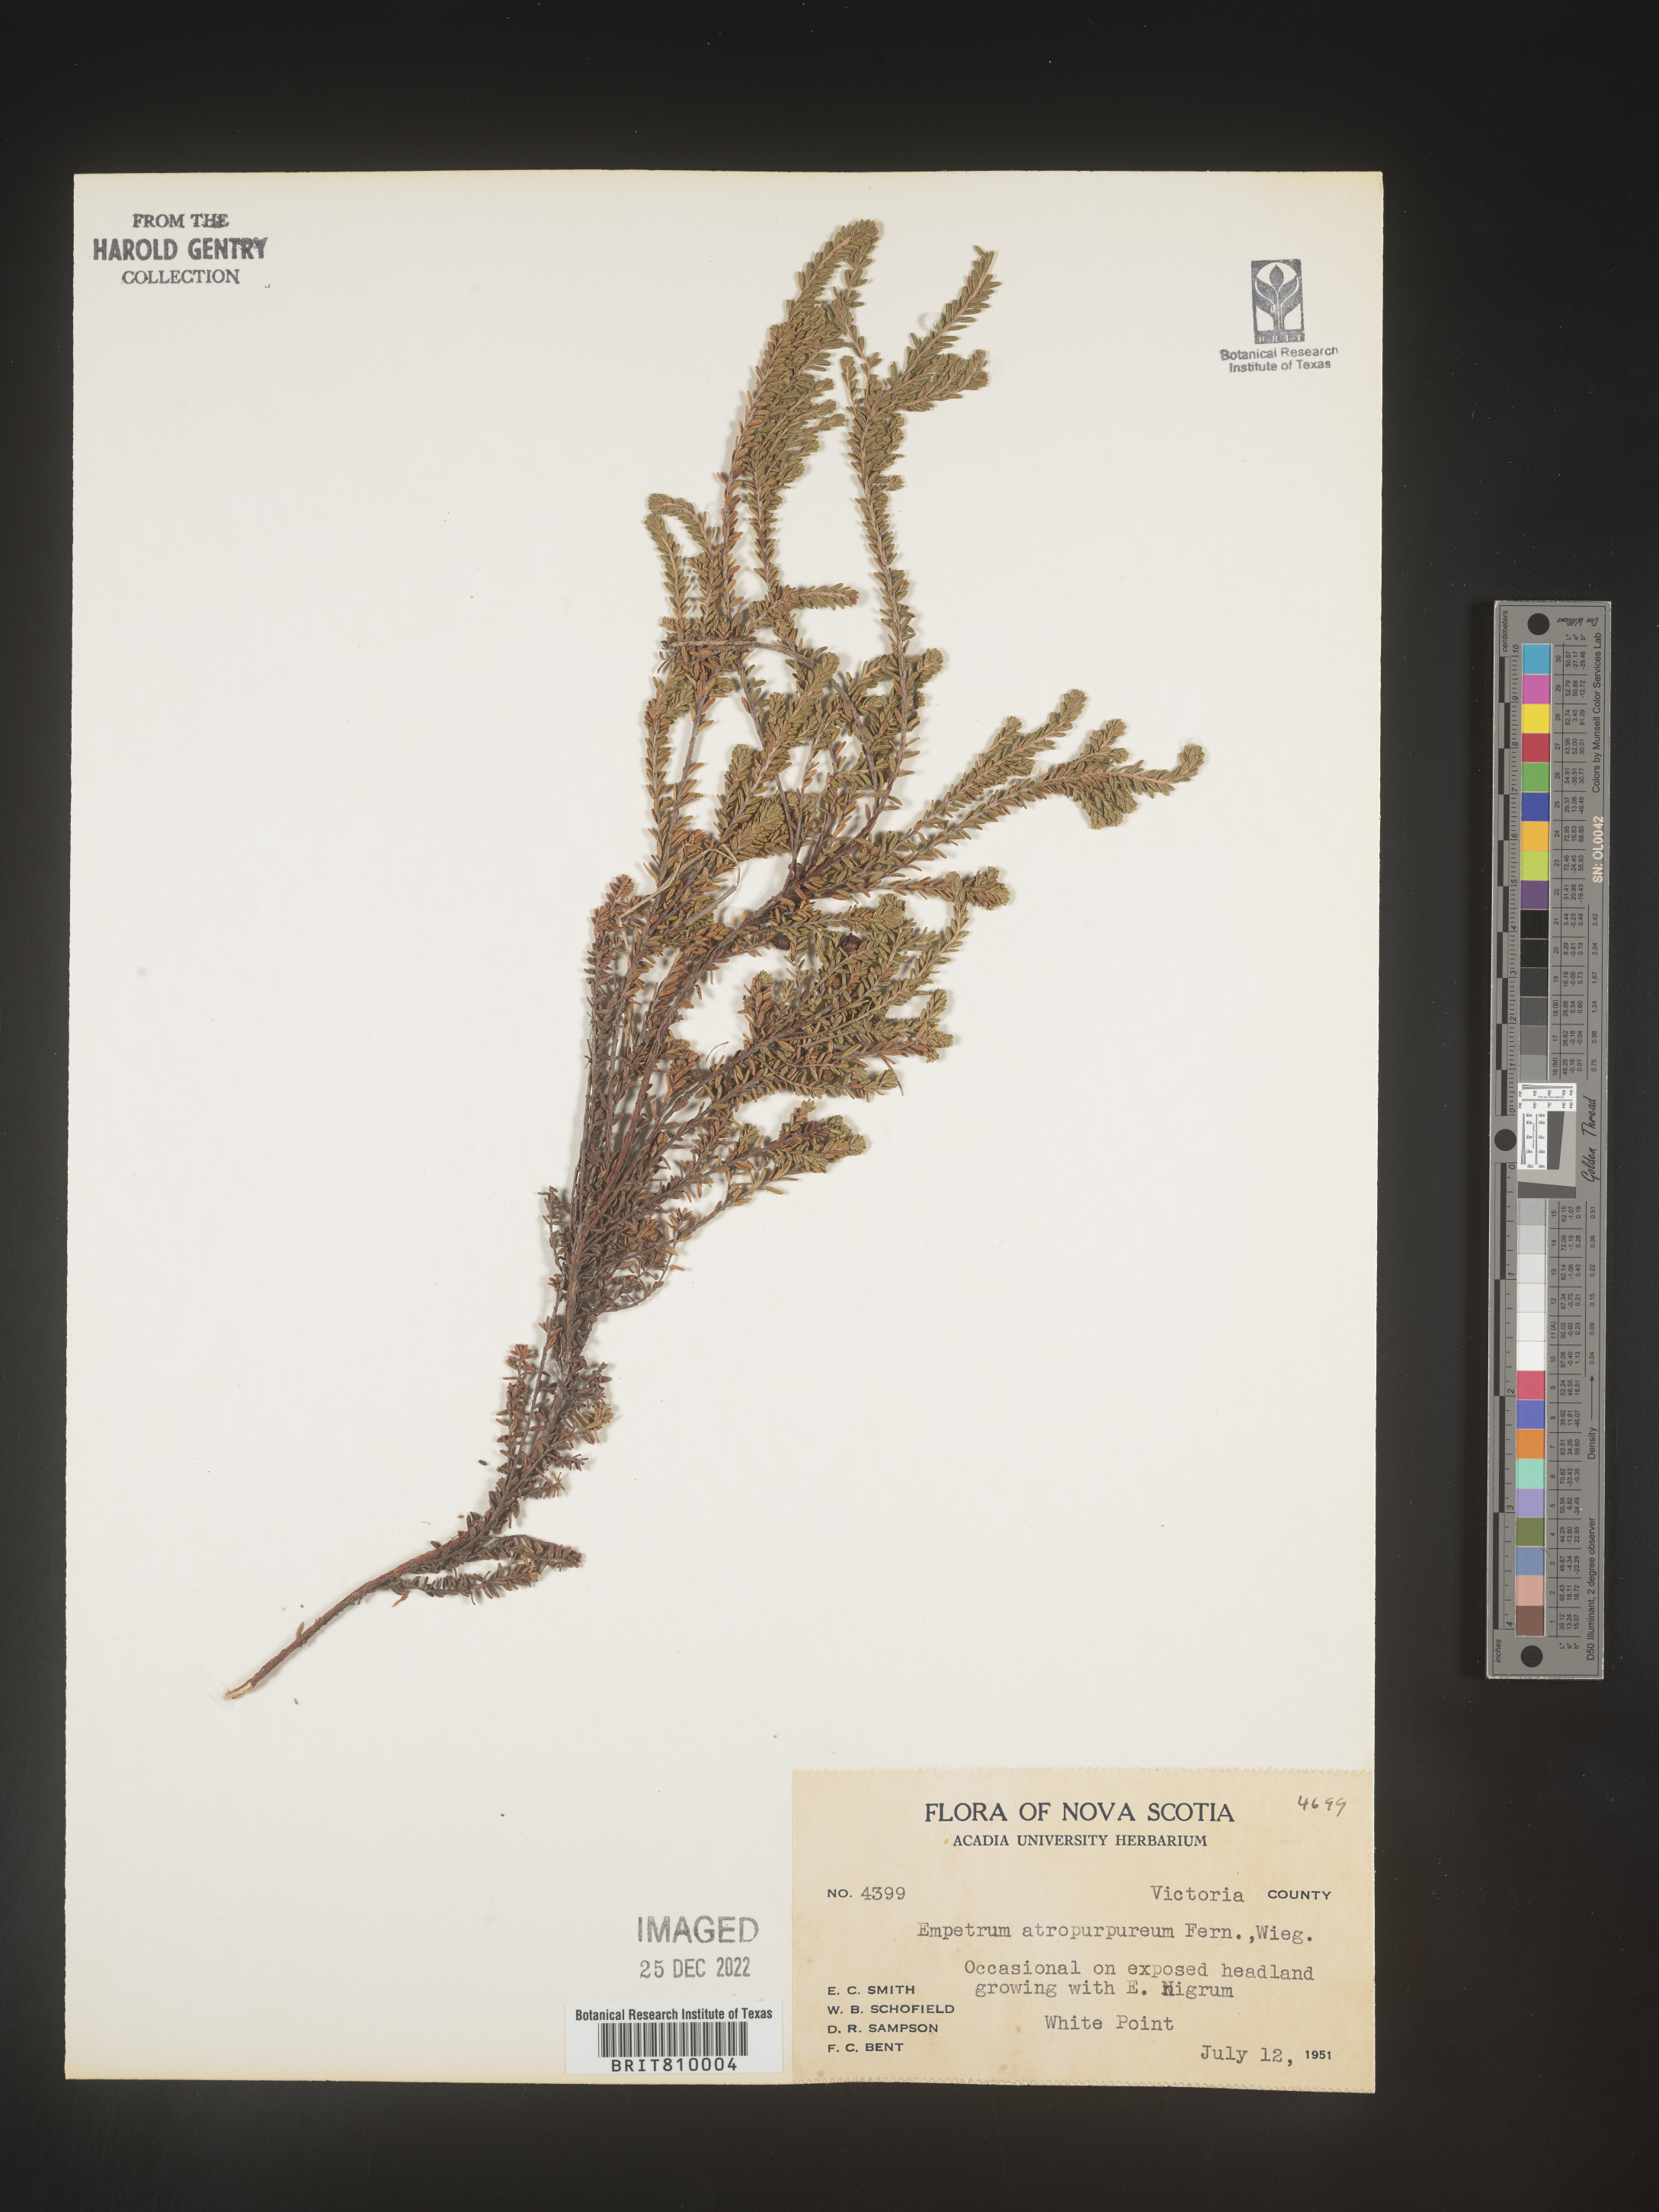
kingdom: Plantae
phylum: Tracheophyta
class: Magnoliopsida
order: Ericales
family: Ericaceae
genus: Empetrum
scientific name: Empetrum
